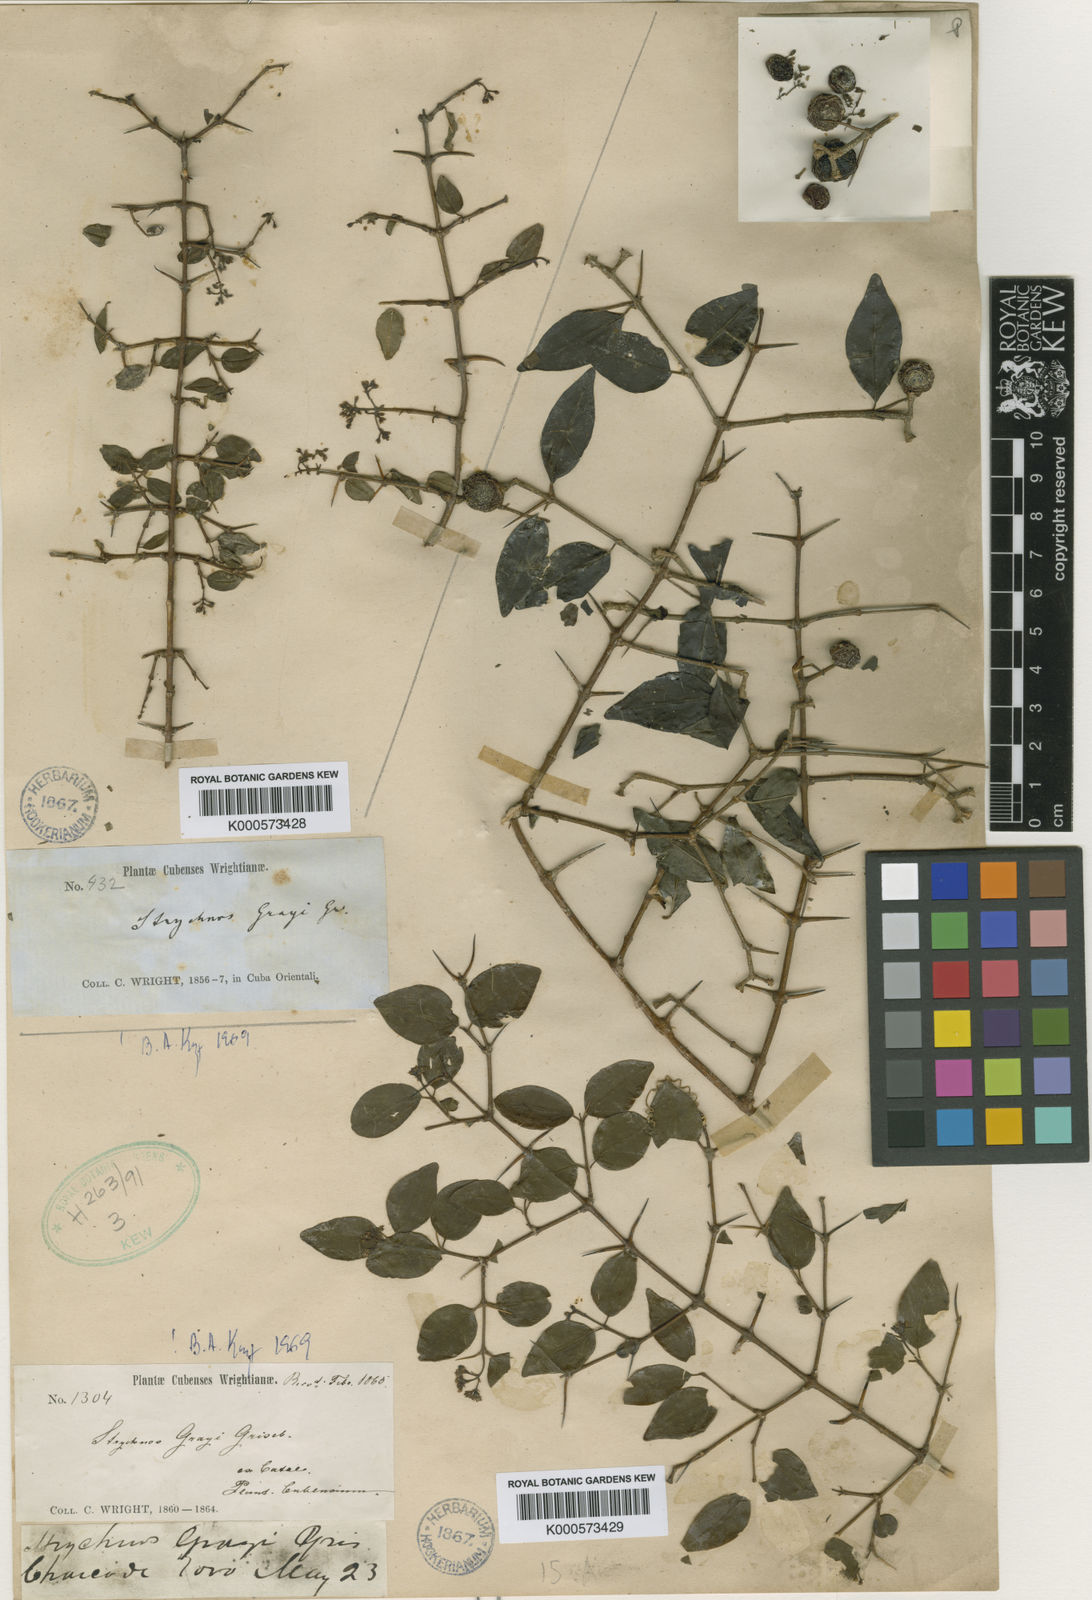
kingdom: Plantae
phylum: Tracheophyta
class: Magnoliopsida
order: Gentianales
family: Loganiaceae
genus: Strychnos
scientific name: Strychnos grayi
